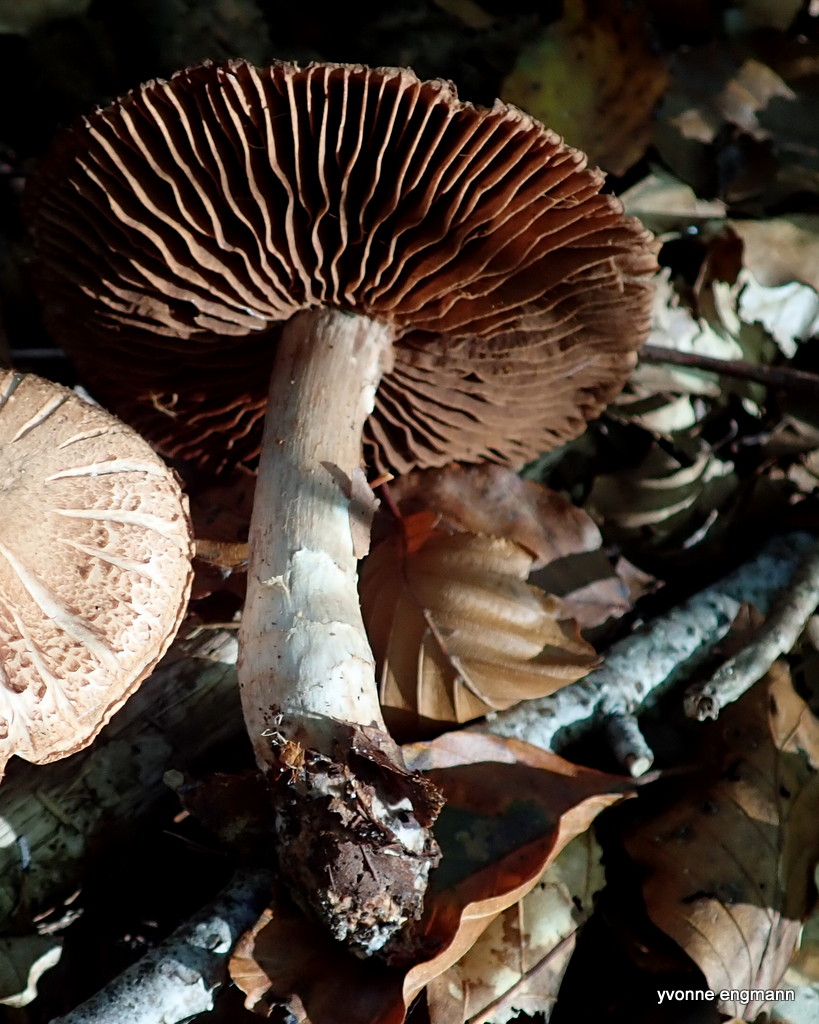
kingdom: Fungi
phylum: Basidiomycota
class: Agaricomycetes
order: Agaricales
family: Cortinariaceae
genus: Cortinarius
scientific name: Cortinarius torvus
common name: champignonagtig slørhat
